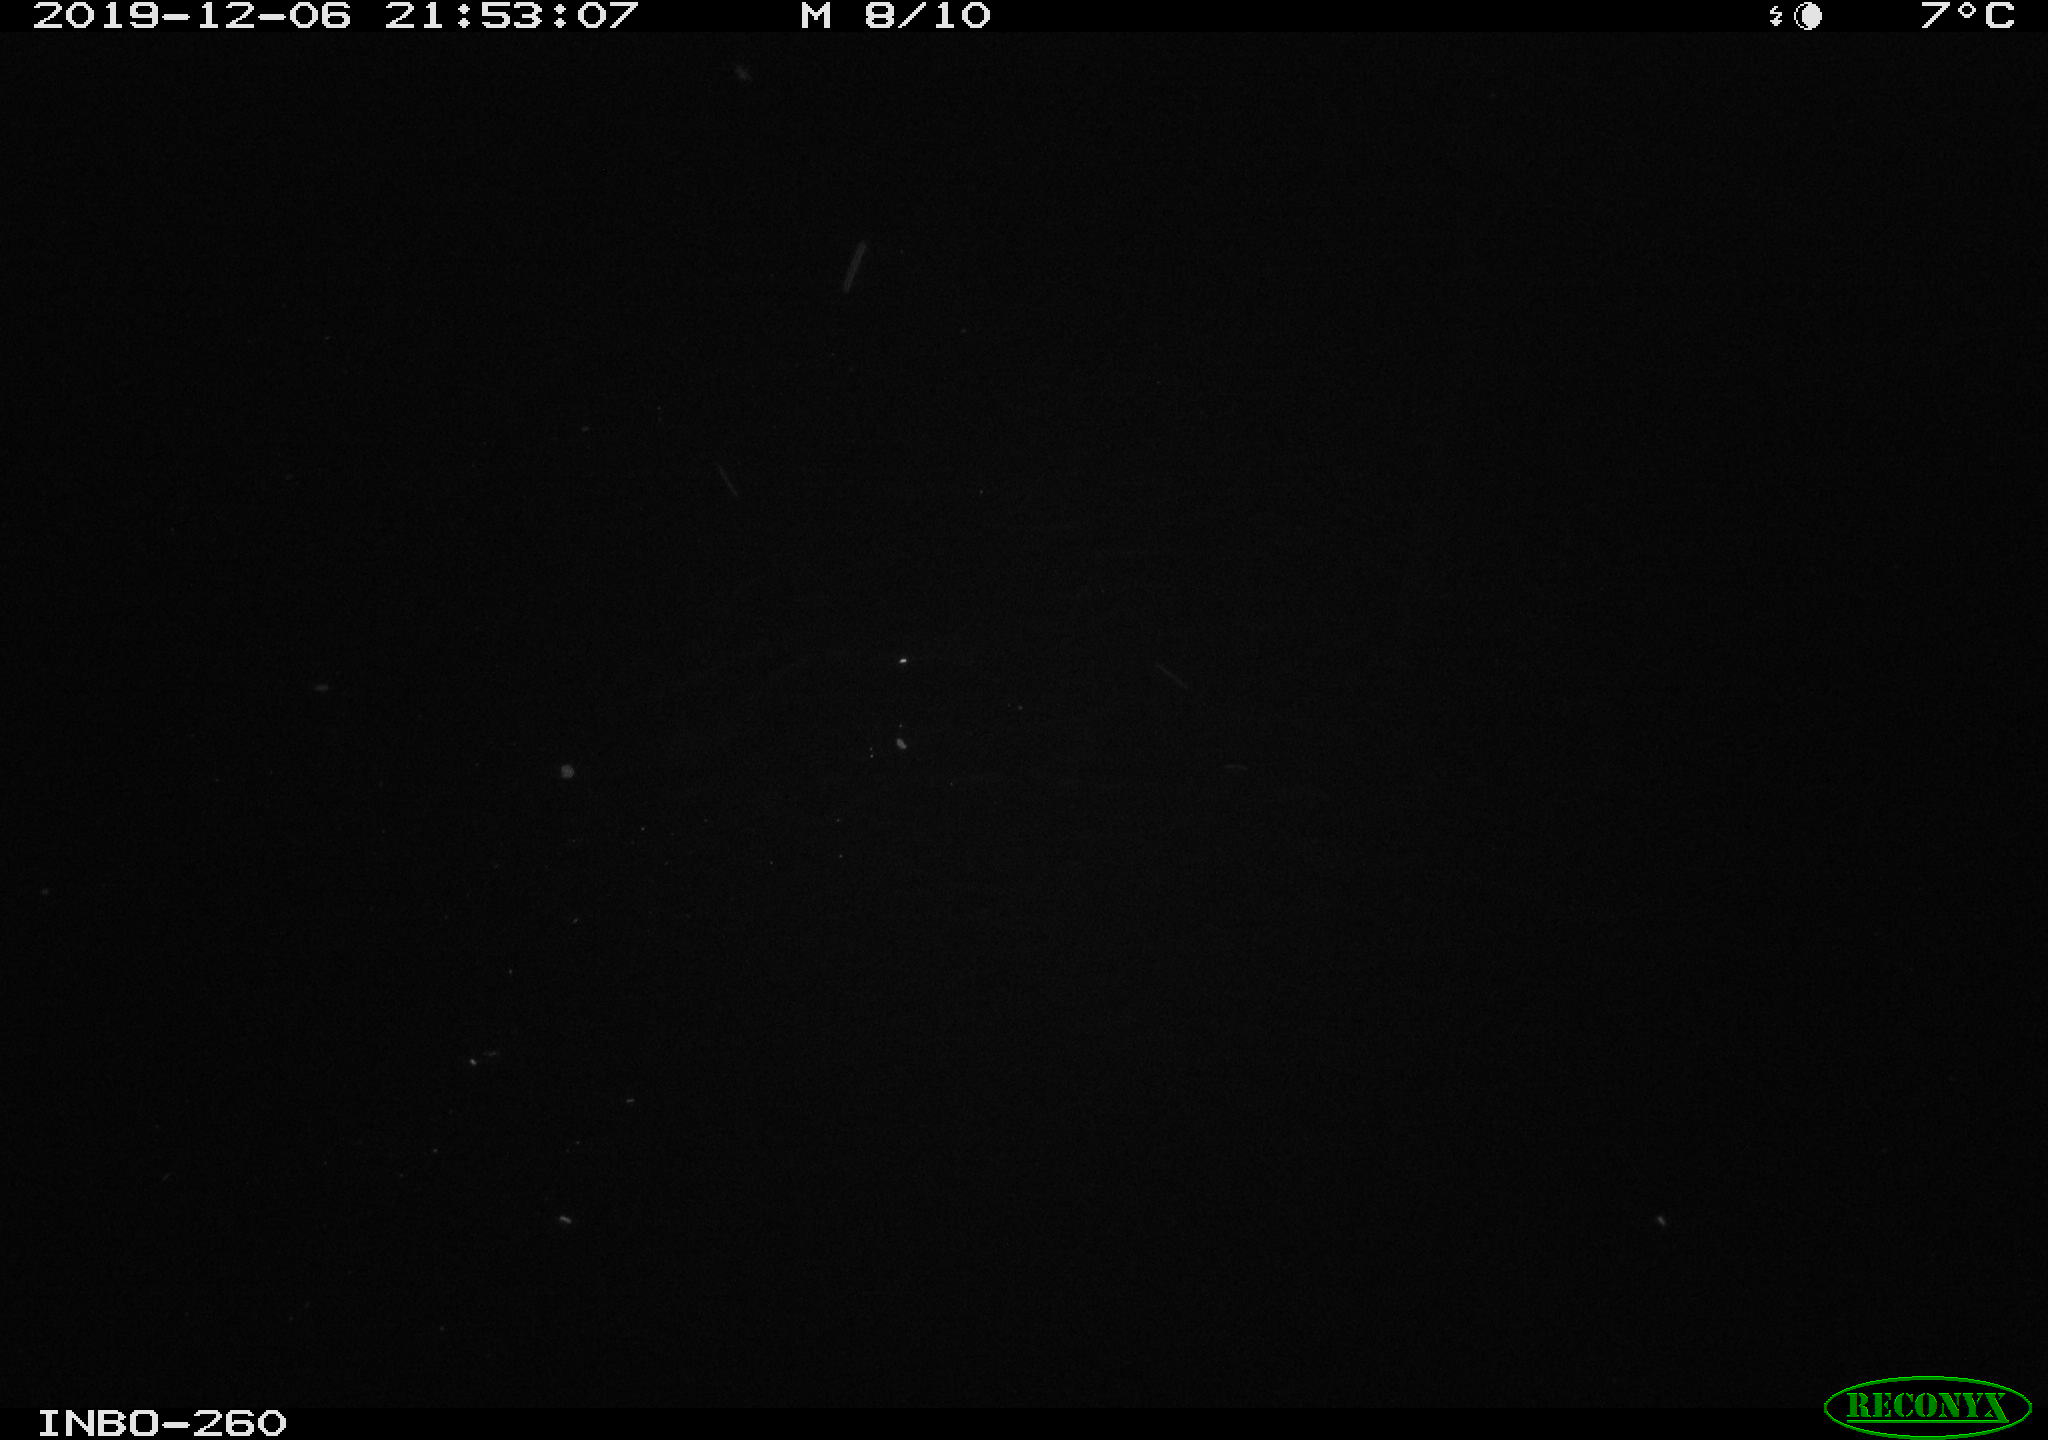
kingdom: Animalia
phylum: Chordata
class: Aves
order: Anseriformes
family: Anatidae
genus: Anas
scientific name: Anas platyrhynchos
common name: Mallard
